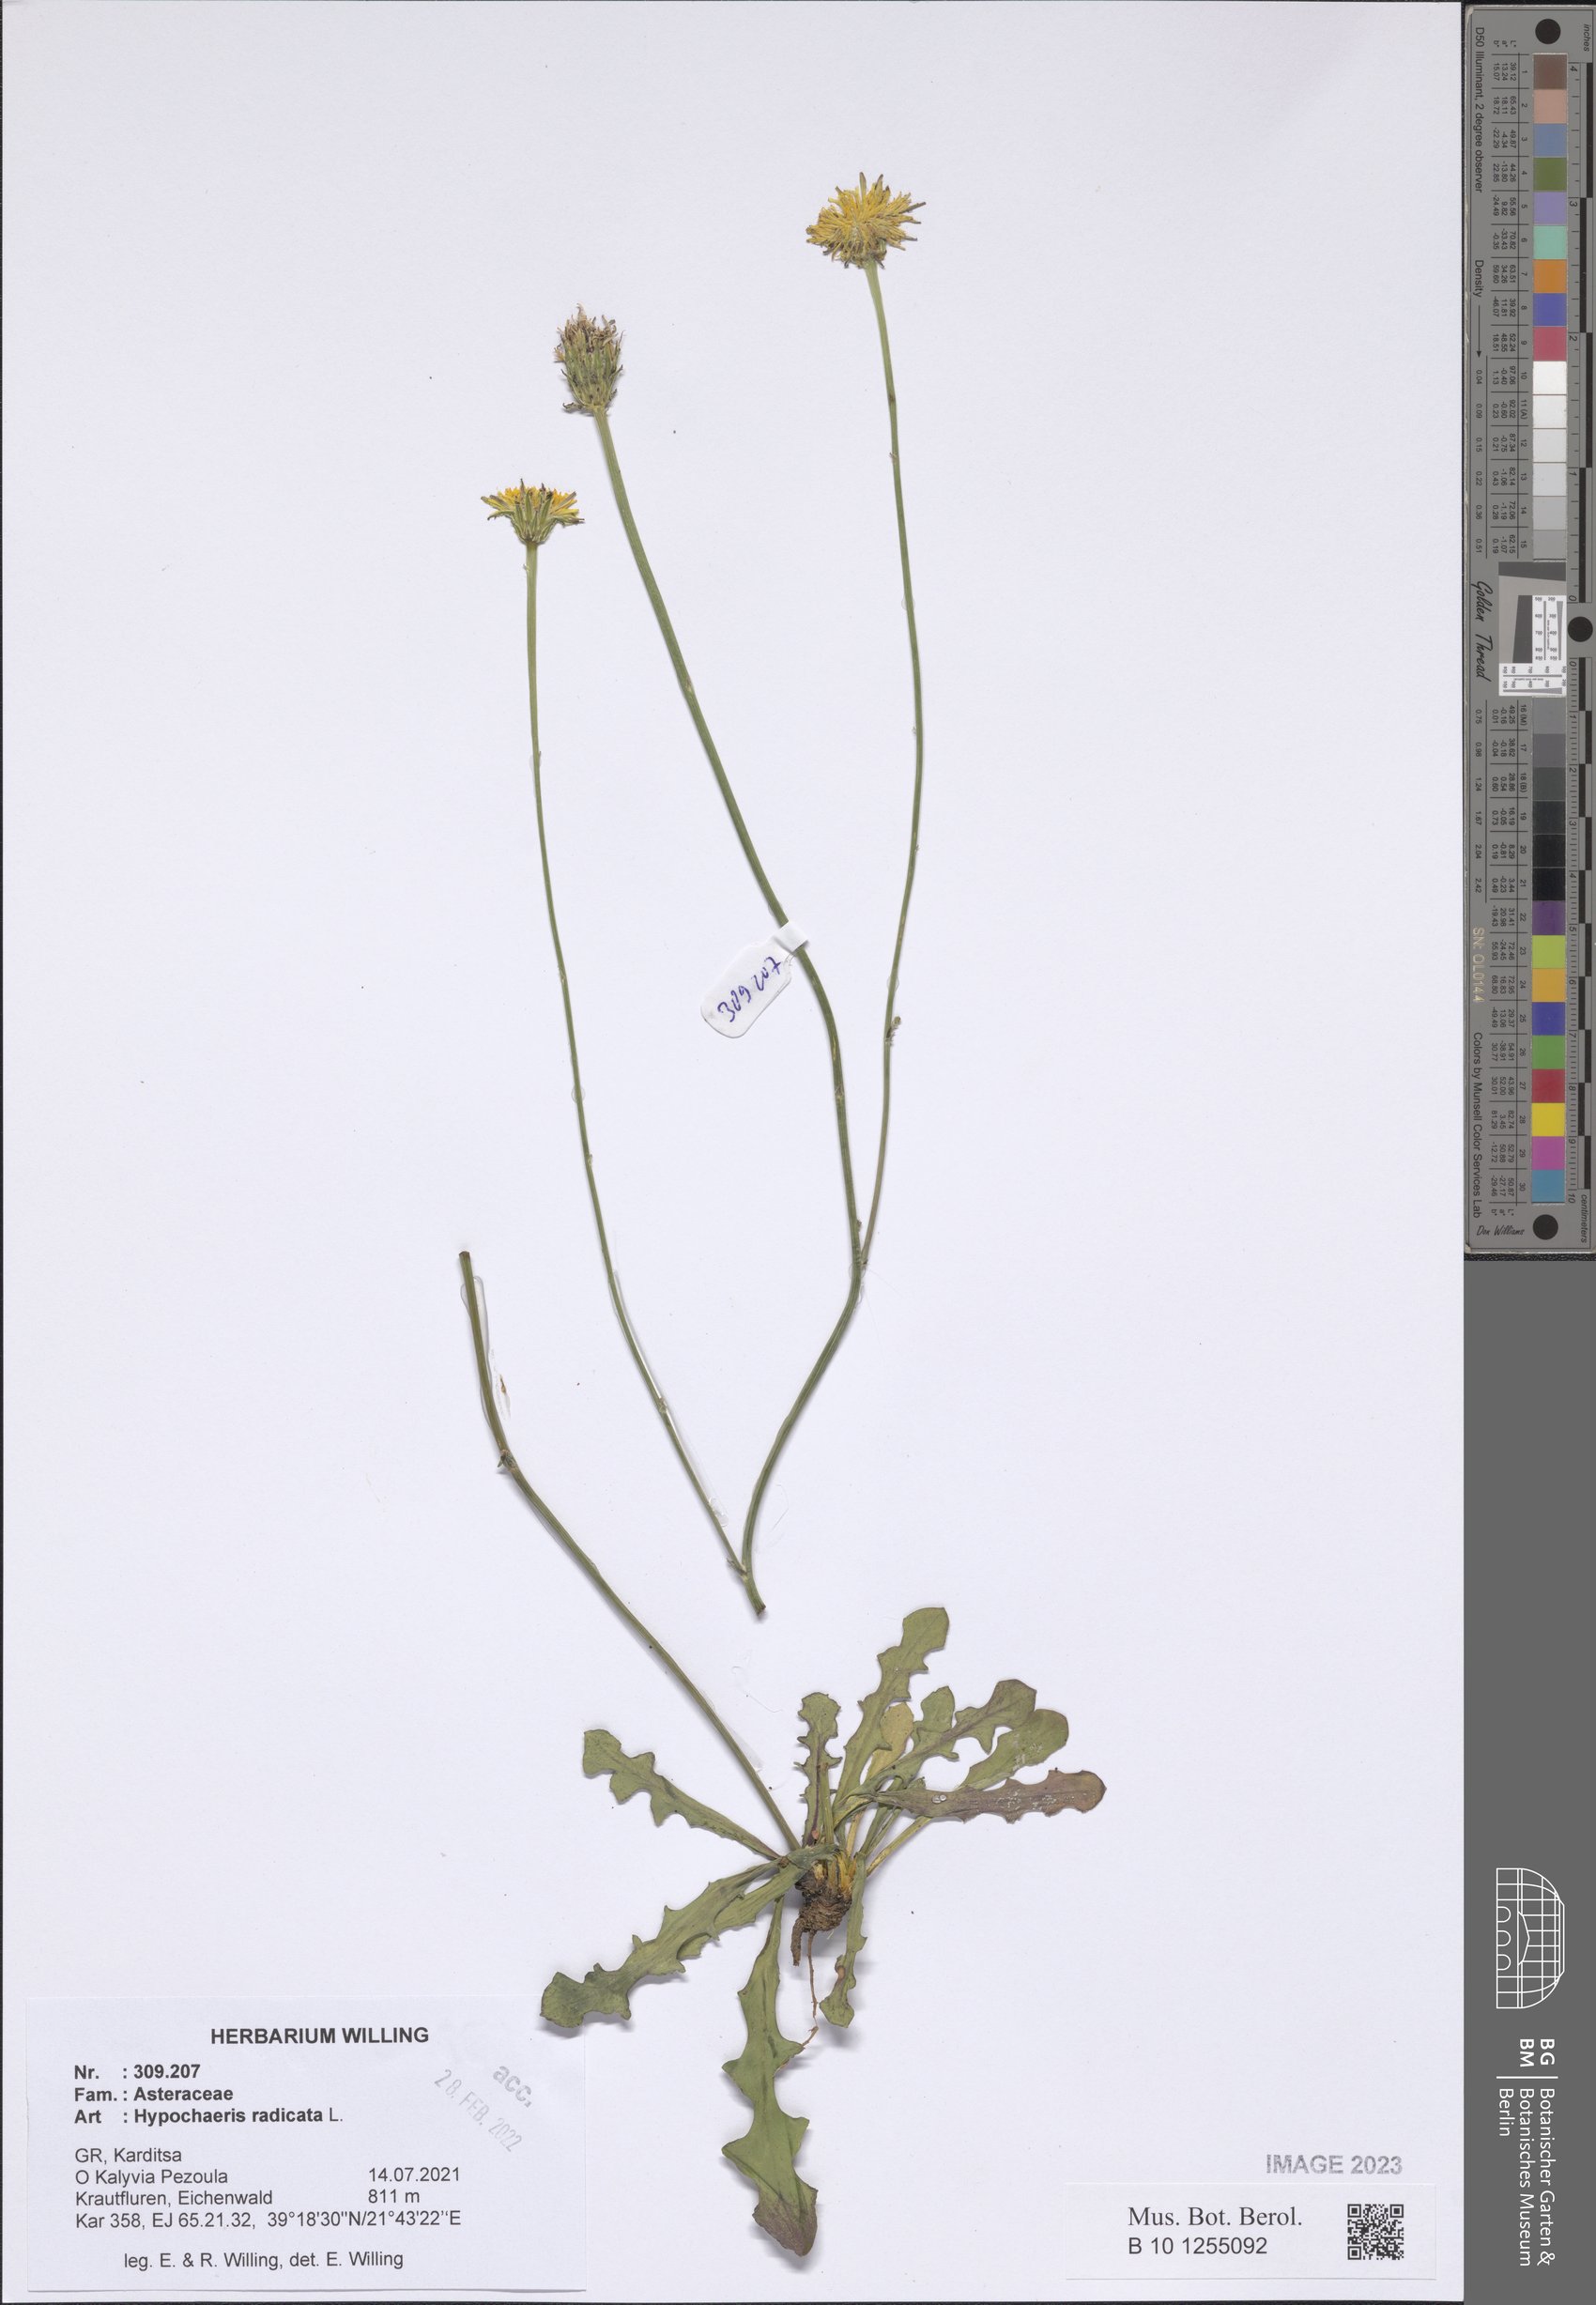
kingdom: Plantae
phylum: Tracheophyta
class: Magnoliopsida
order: Asterales
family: Asteraceae
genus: Hypochaeris
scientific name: Hypochaeris radicata
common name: Flatweed
